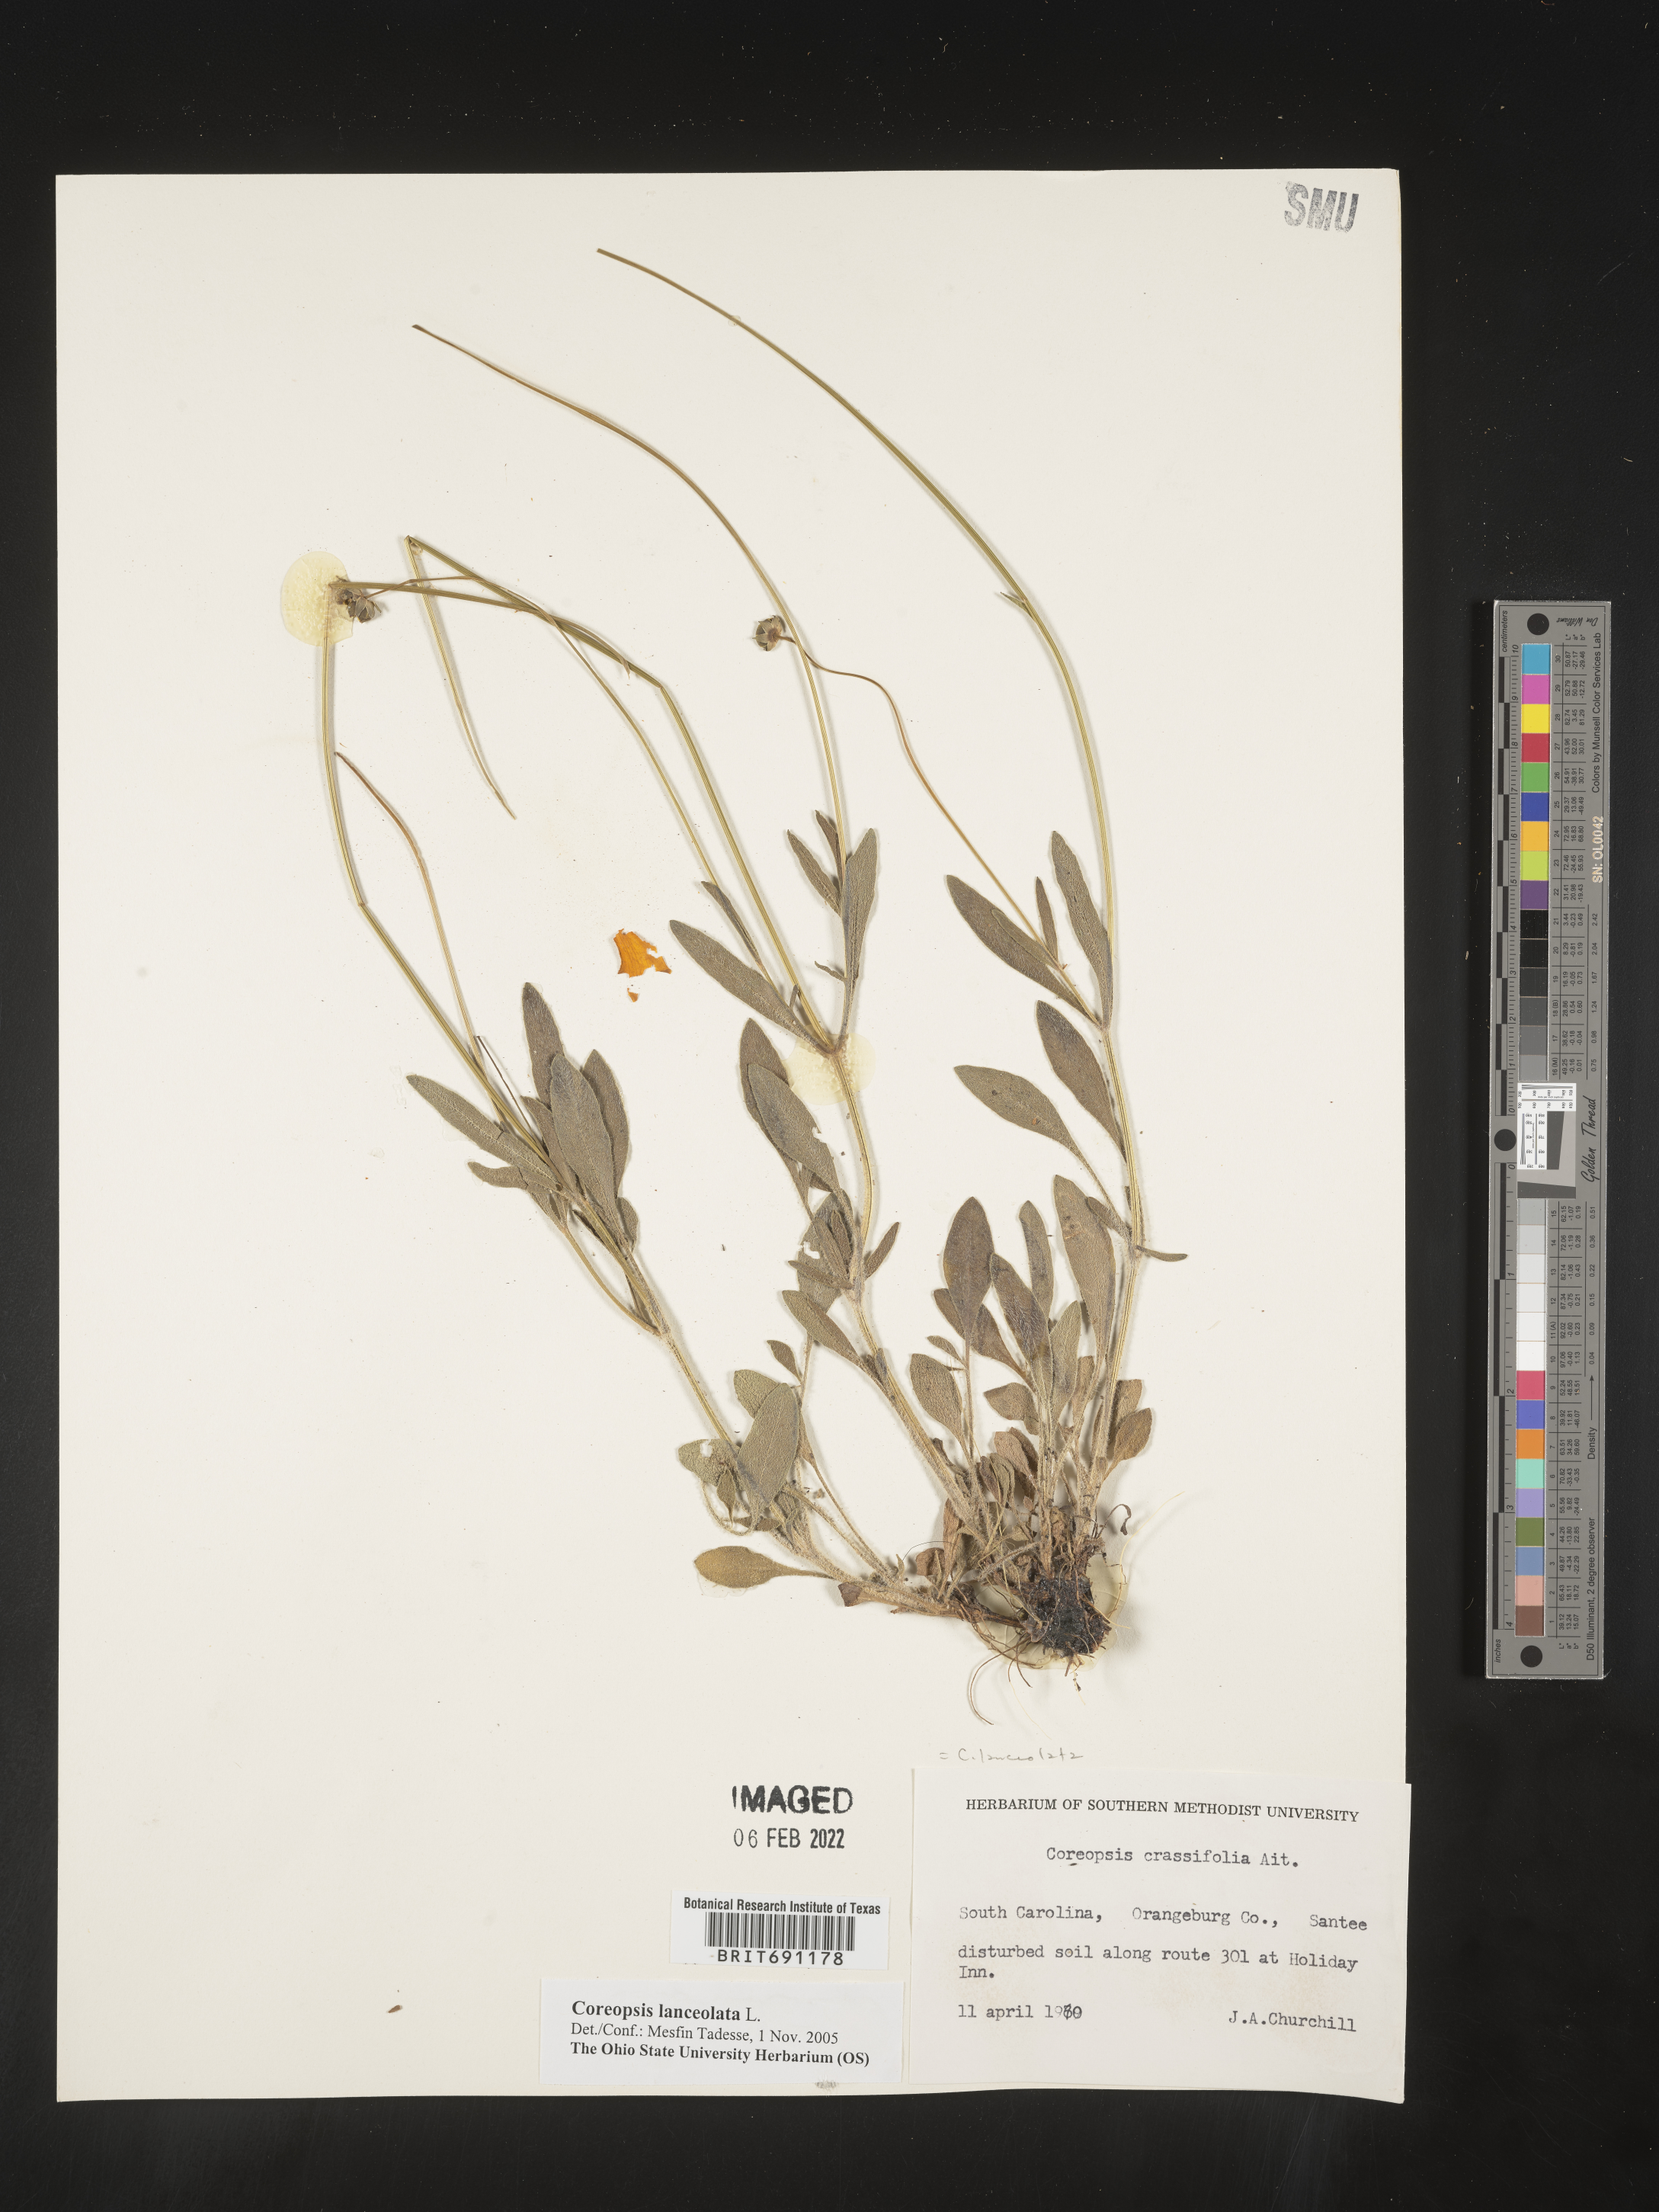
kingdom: Plantae
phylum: Tracheophyta
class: Magnoliopsida
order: Asterales
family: Asteraceae
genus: Coreopsis
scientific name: Coreopsis lanceolata
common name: Garden coreopsis
